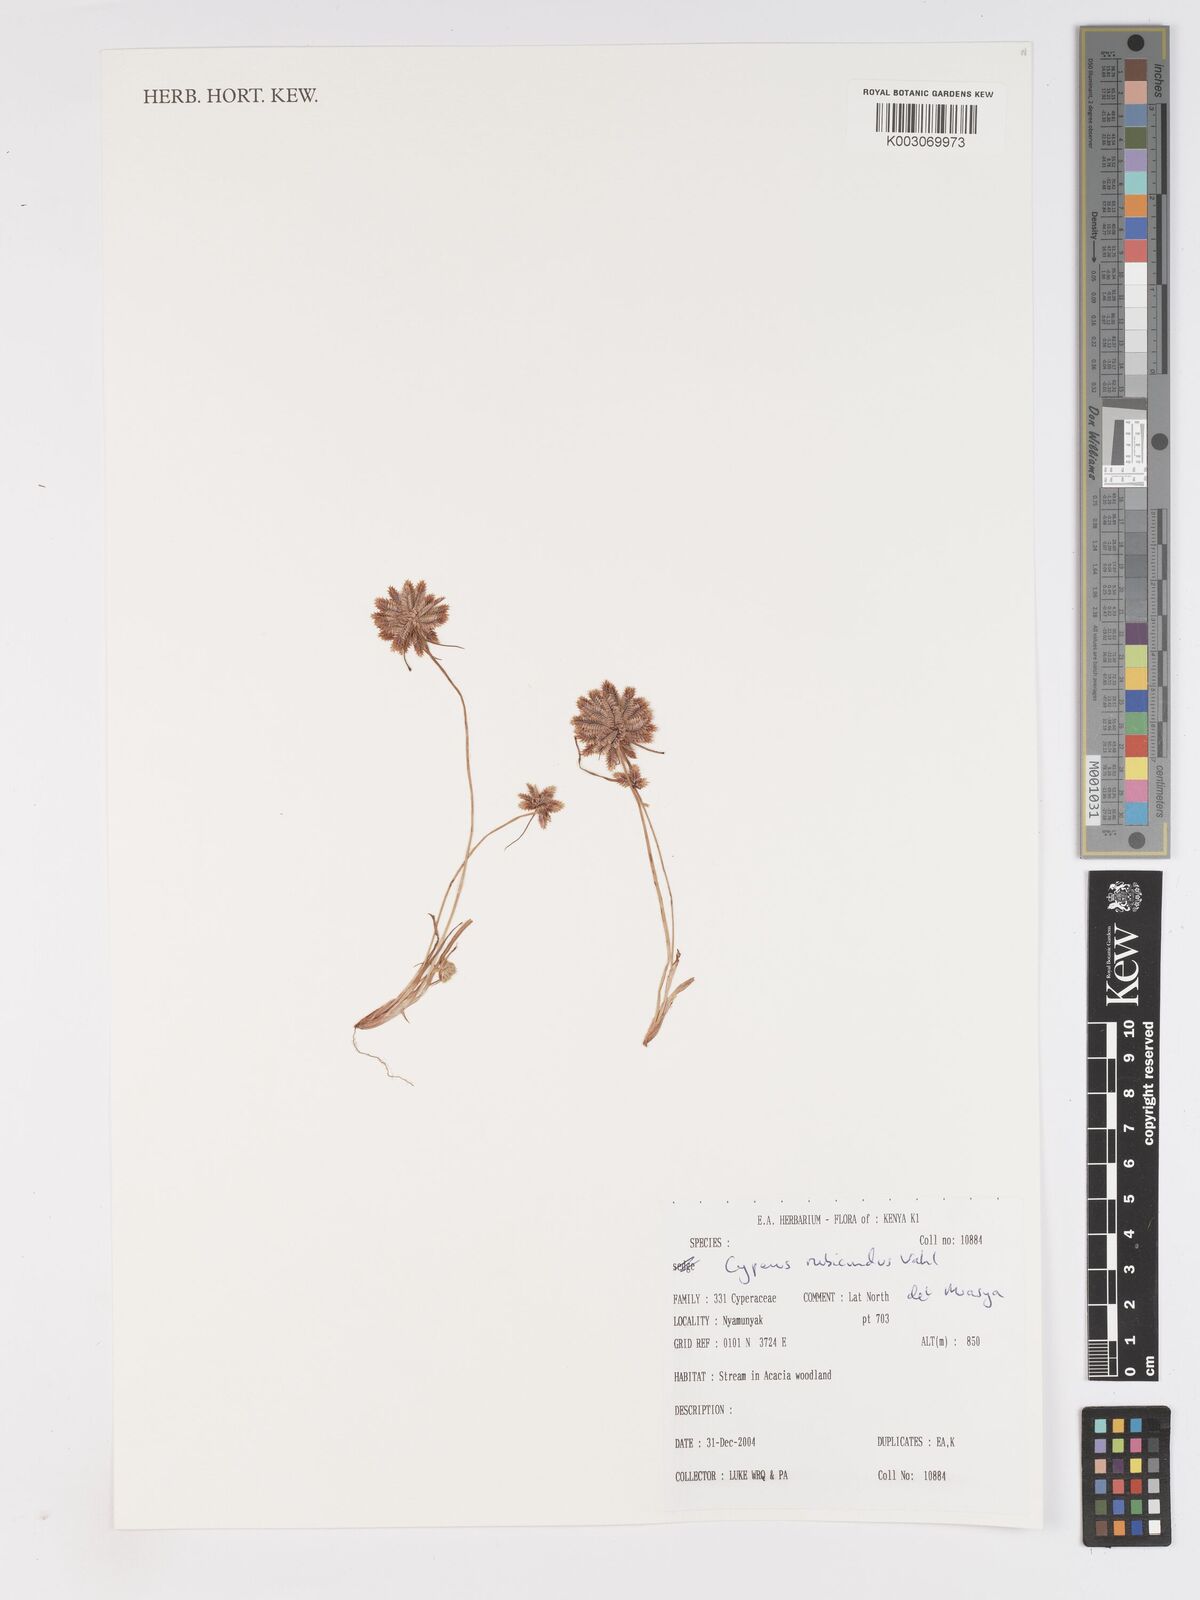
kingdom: Plantae
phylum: Tracheophyta
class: Liliopsida
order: Poales
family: Cyperaceae
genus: Cyperus
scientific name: Cyperus rubicundus
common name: Coco-grass
